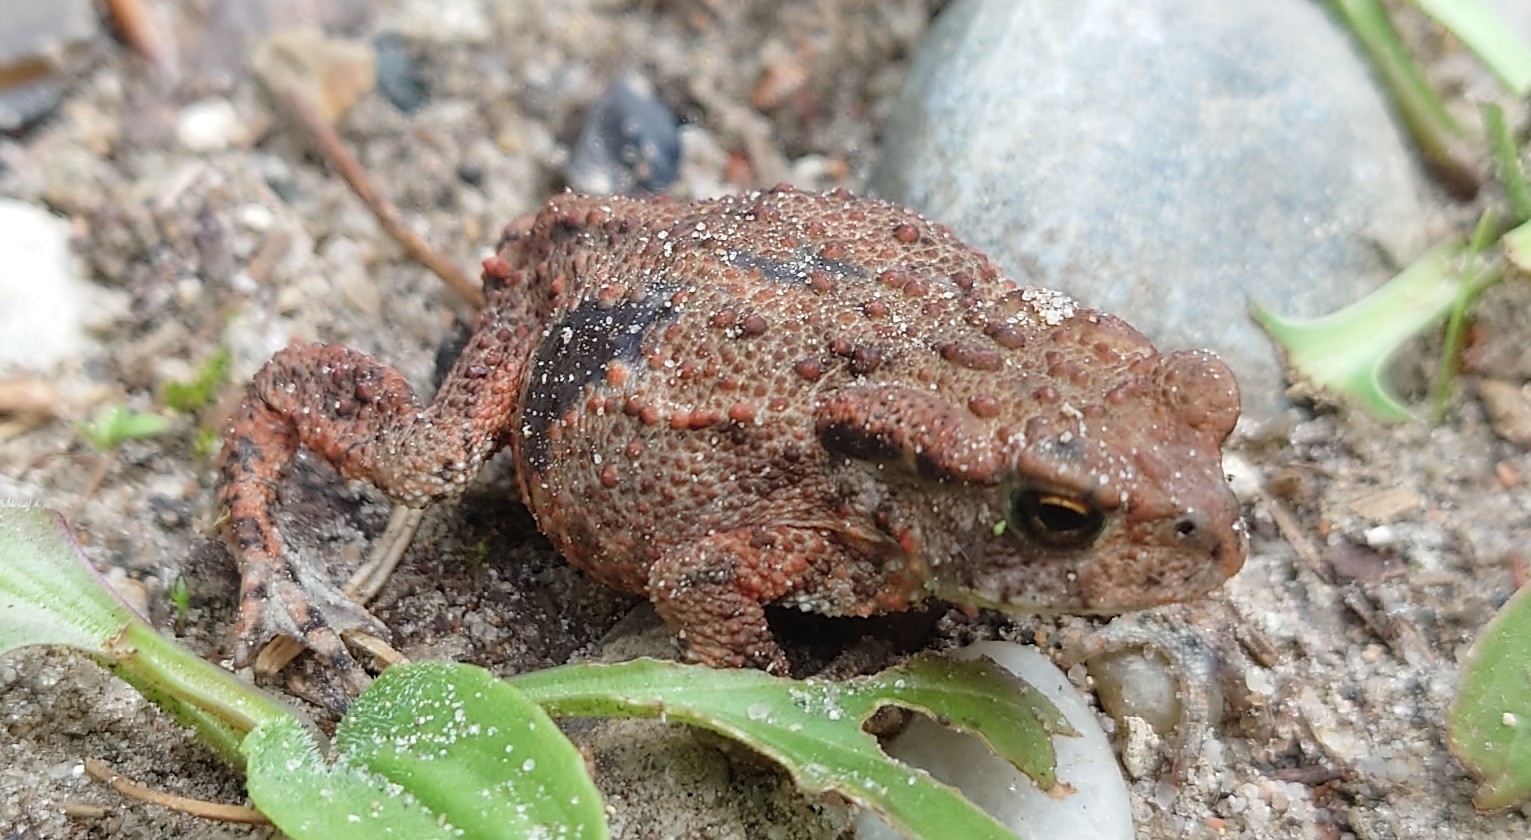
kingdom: Animalia
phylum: Chordata
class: Amphibia
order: Anura
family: Bufonidae
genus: Bufo
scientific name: Bufo bufo
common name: Skrubtudse
